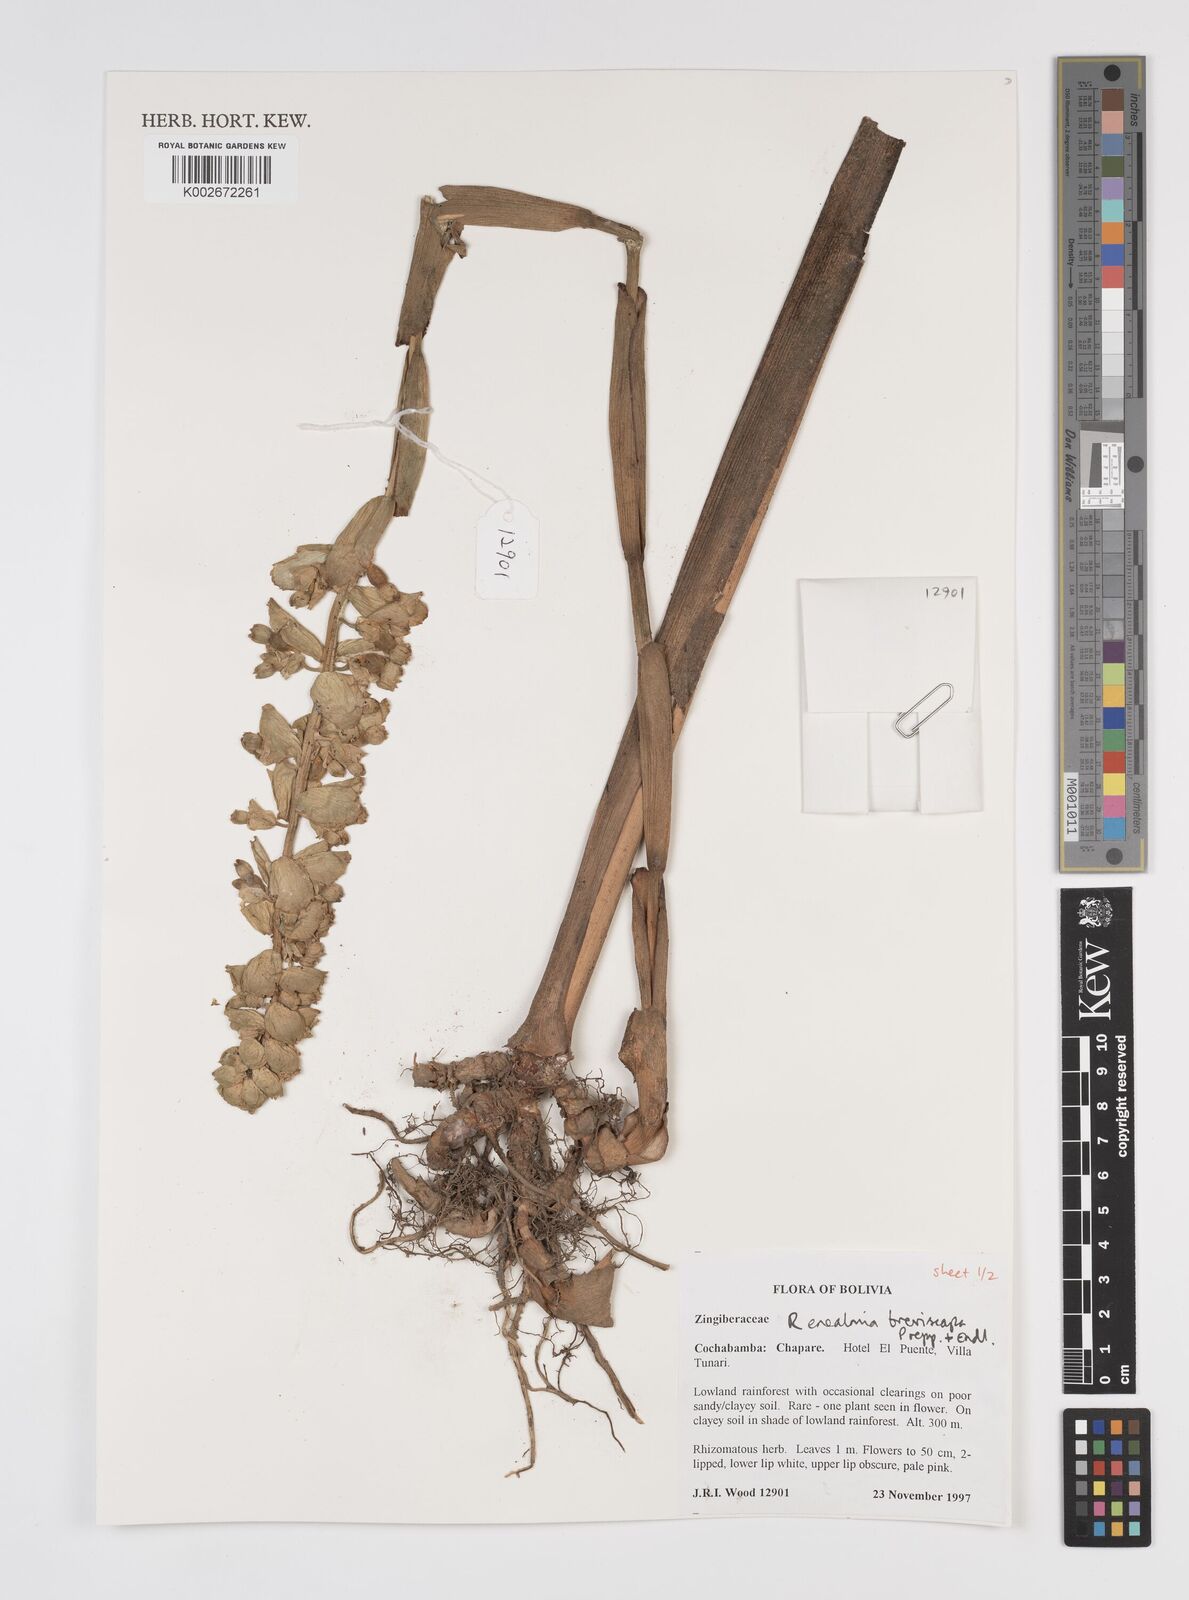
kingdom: Plantae
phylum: Tracheophyta
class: Liliopsida
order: Zingiberales
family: Zingiberaceae
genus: Renealmia
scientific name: Renealmia breviscapa
